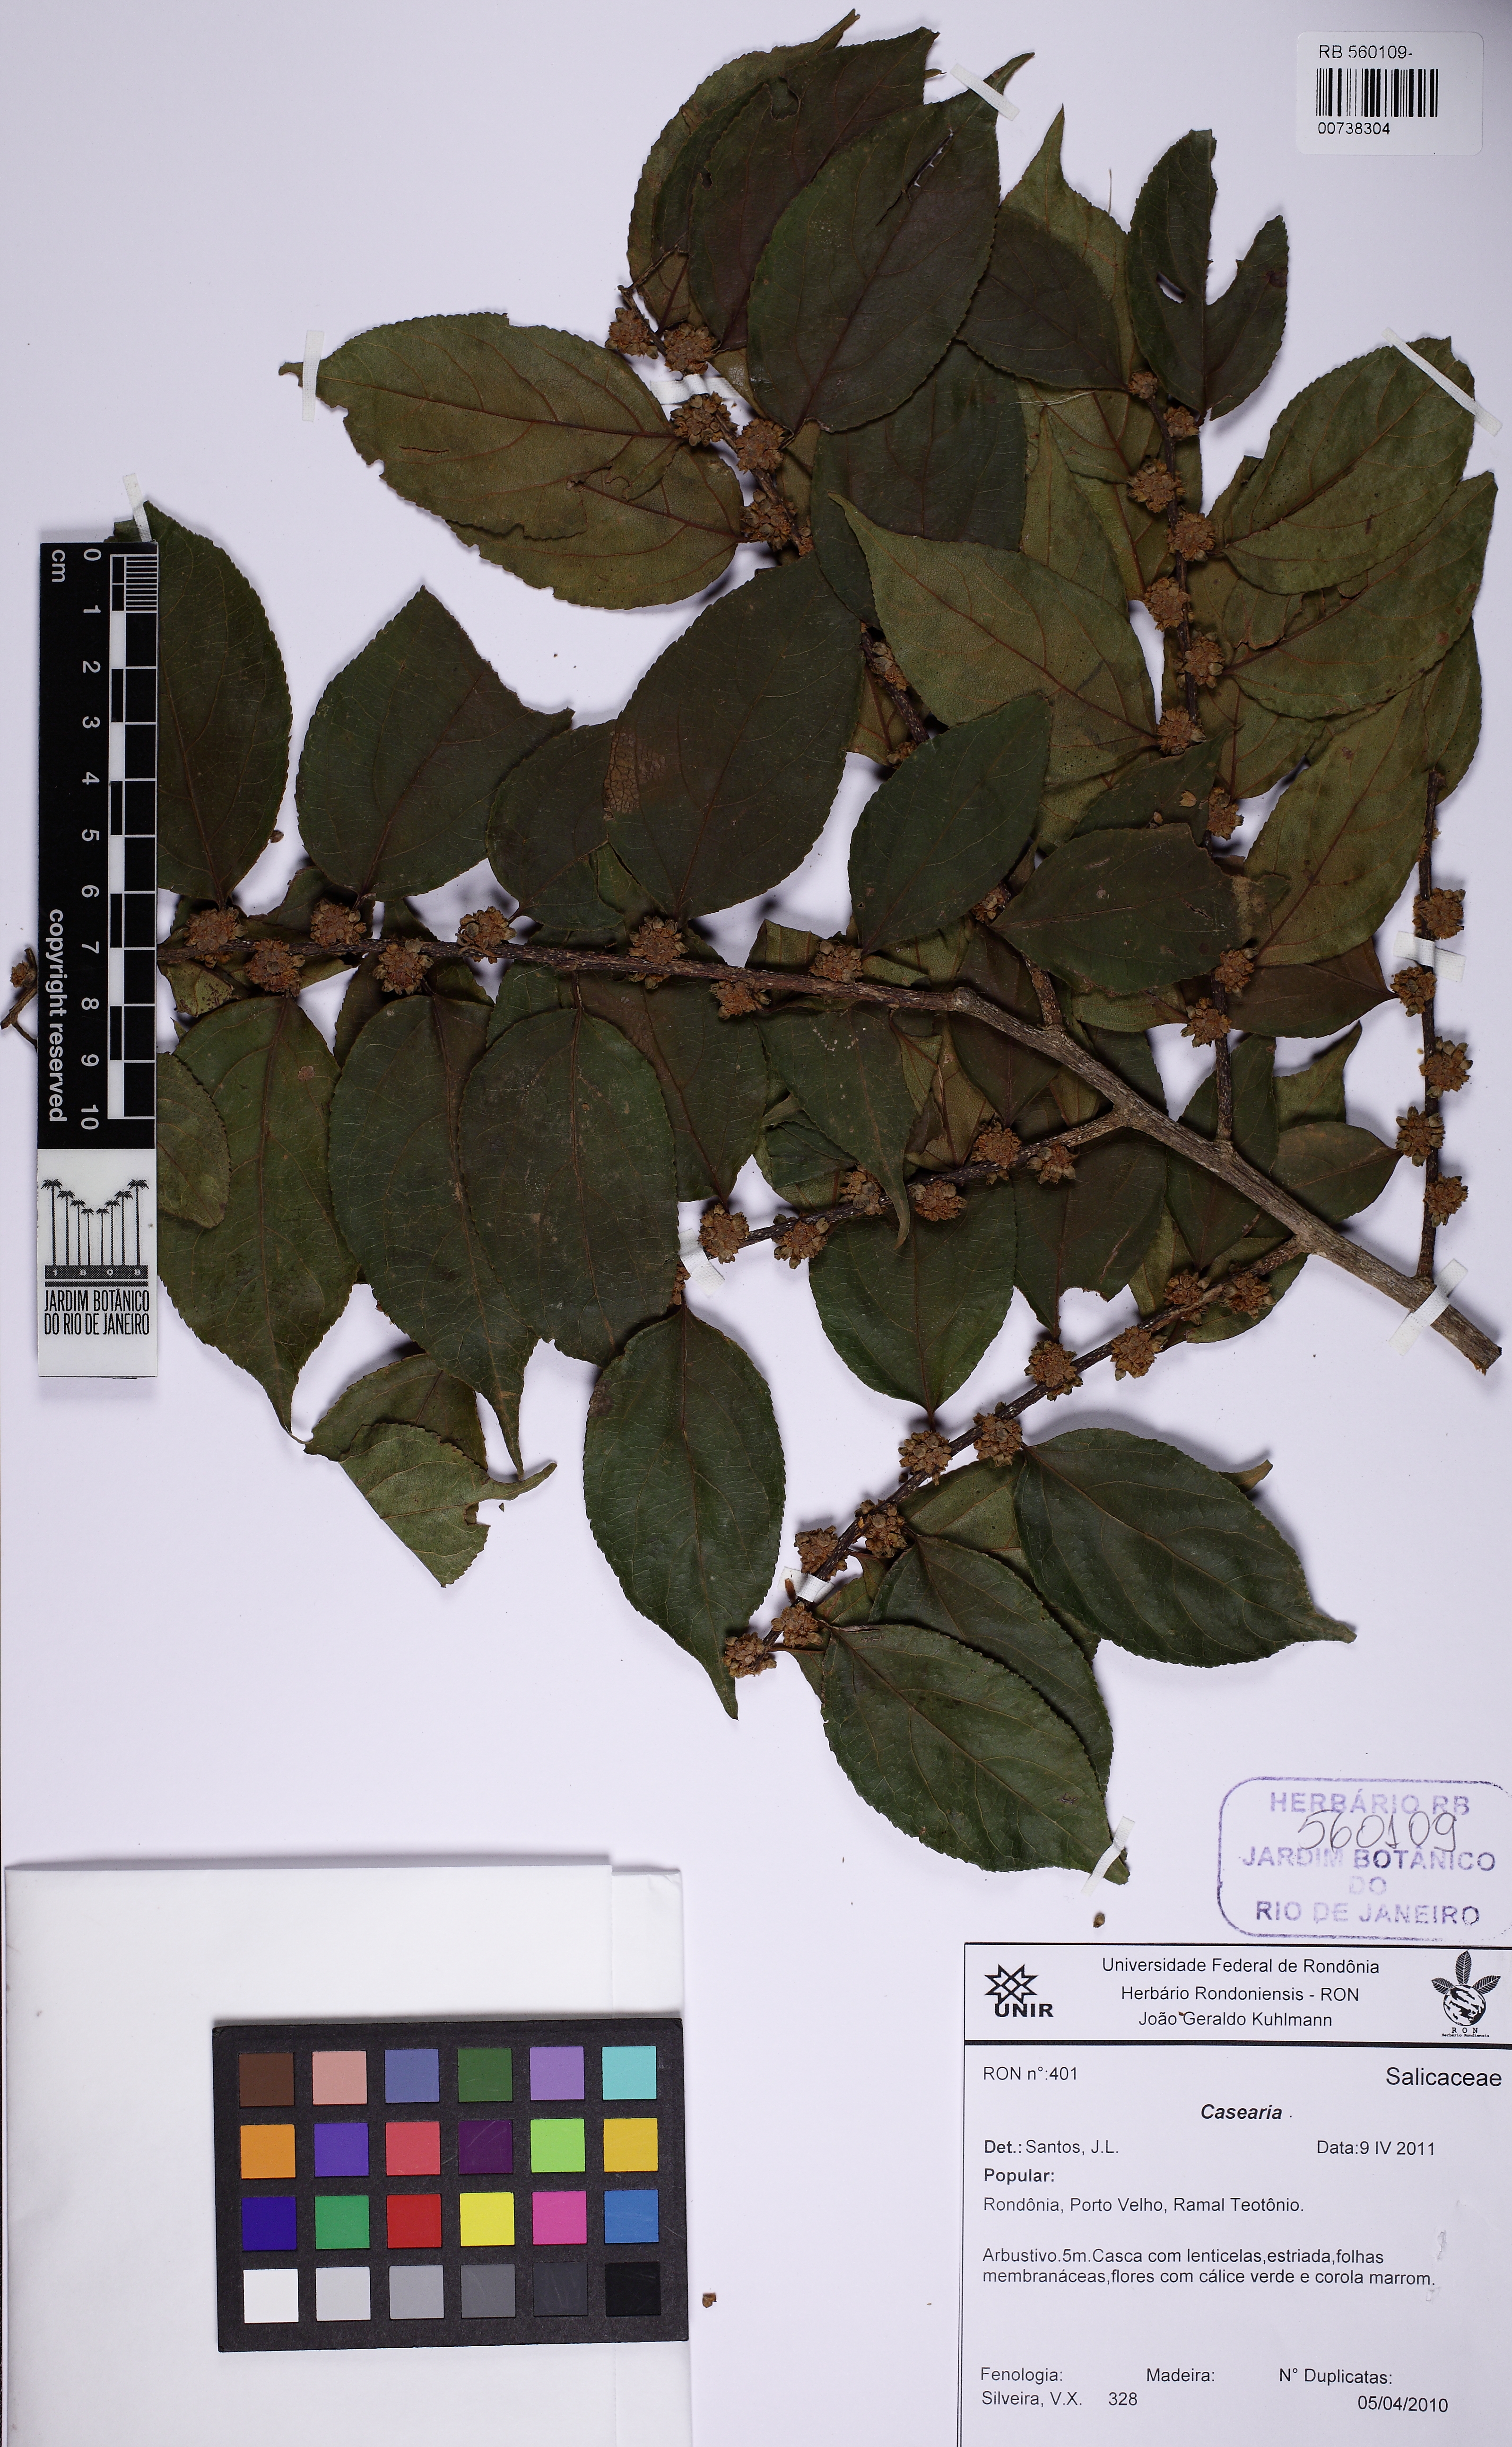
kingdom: Plantae
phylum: Tracheophyta
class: Magnoliopsida
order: Malpighiales
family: Salicaceae
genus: Casearia
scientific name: Casearia ulmifolia
